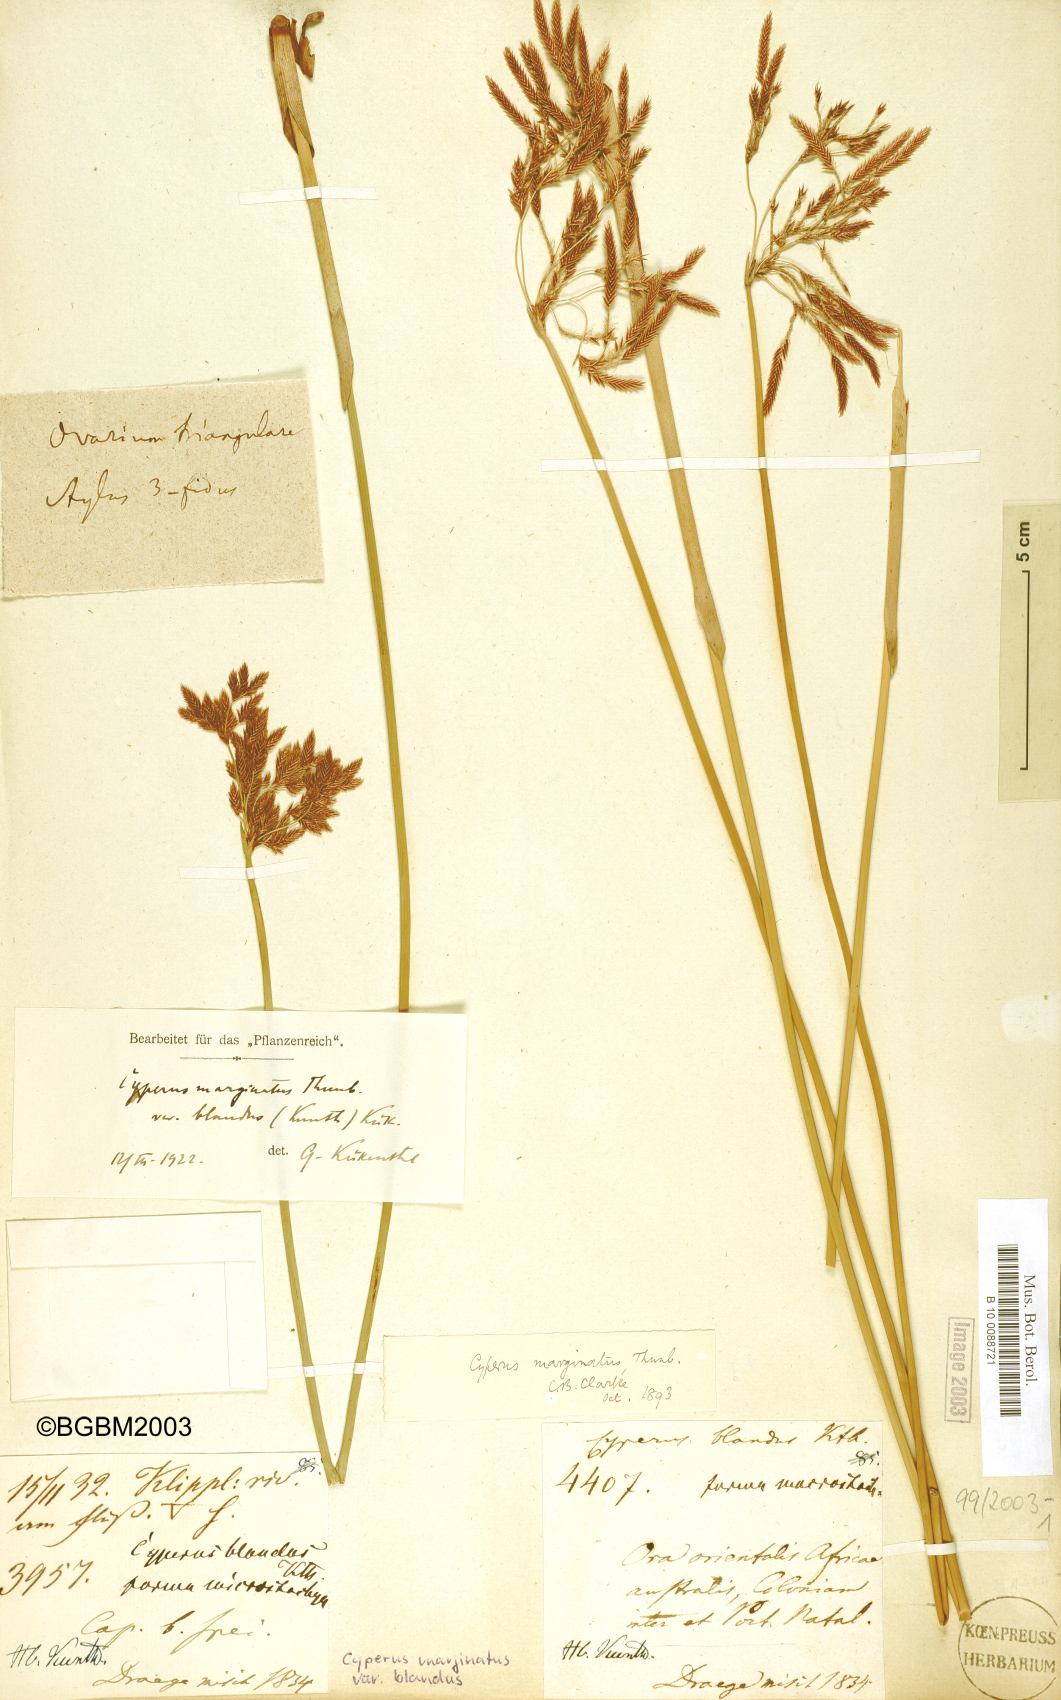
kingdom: Plantae
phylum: Tracheophyta
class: Liliopsida
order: Poales
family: Cyperaceae
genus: Cyperus
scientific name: Cyperus marginatus
